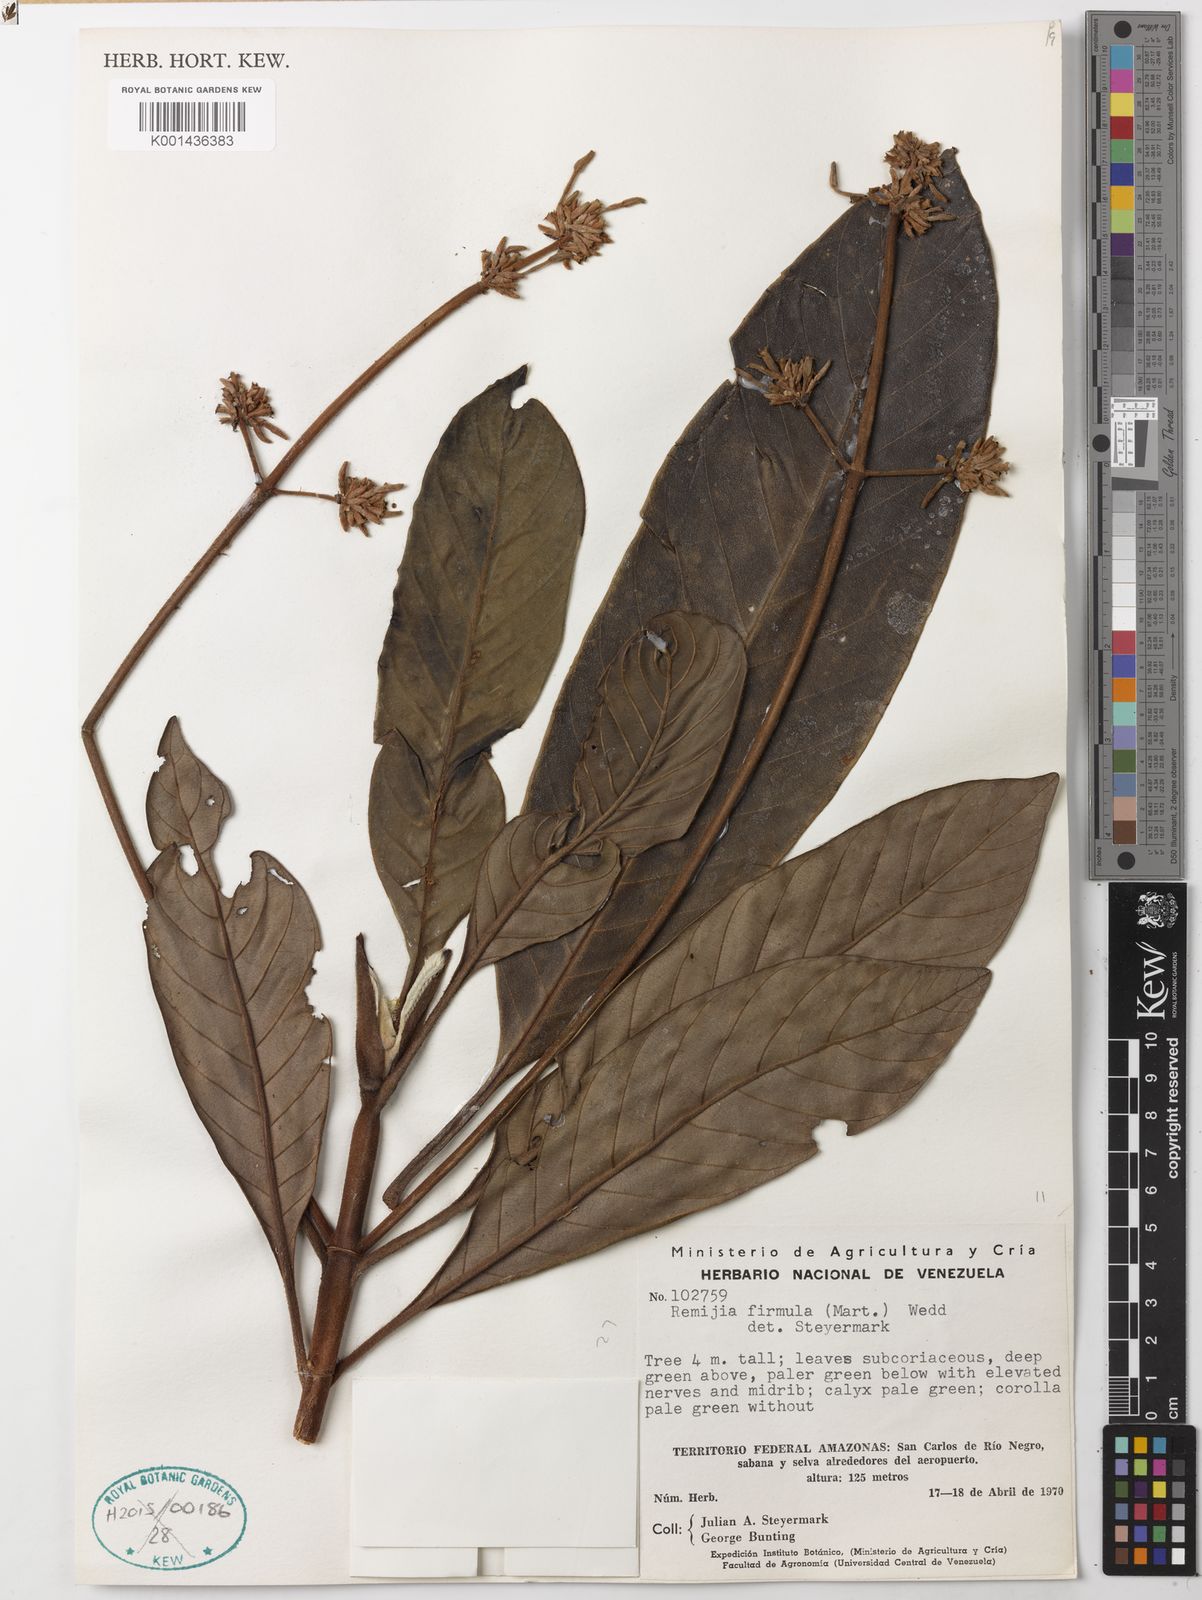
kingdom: Plantae
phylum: Tracheophyta
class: Magnoliopsida
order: Gentianales
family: Rubiaceae
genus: Remijia
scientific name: Remijia firmula
